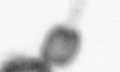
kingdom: Animalia
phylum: Arthropoda
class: Copepoda
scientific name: Copepoda
